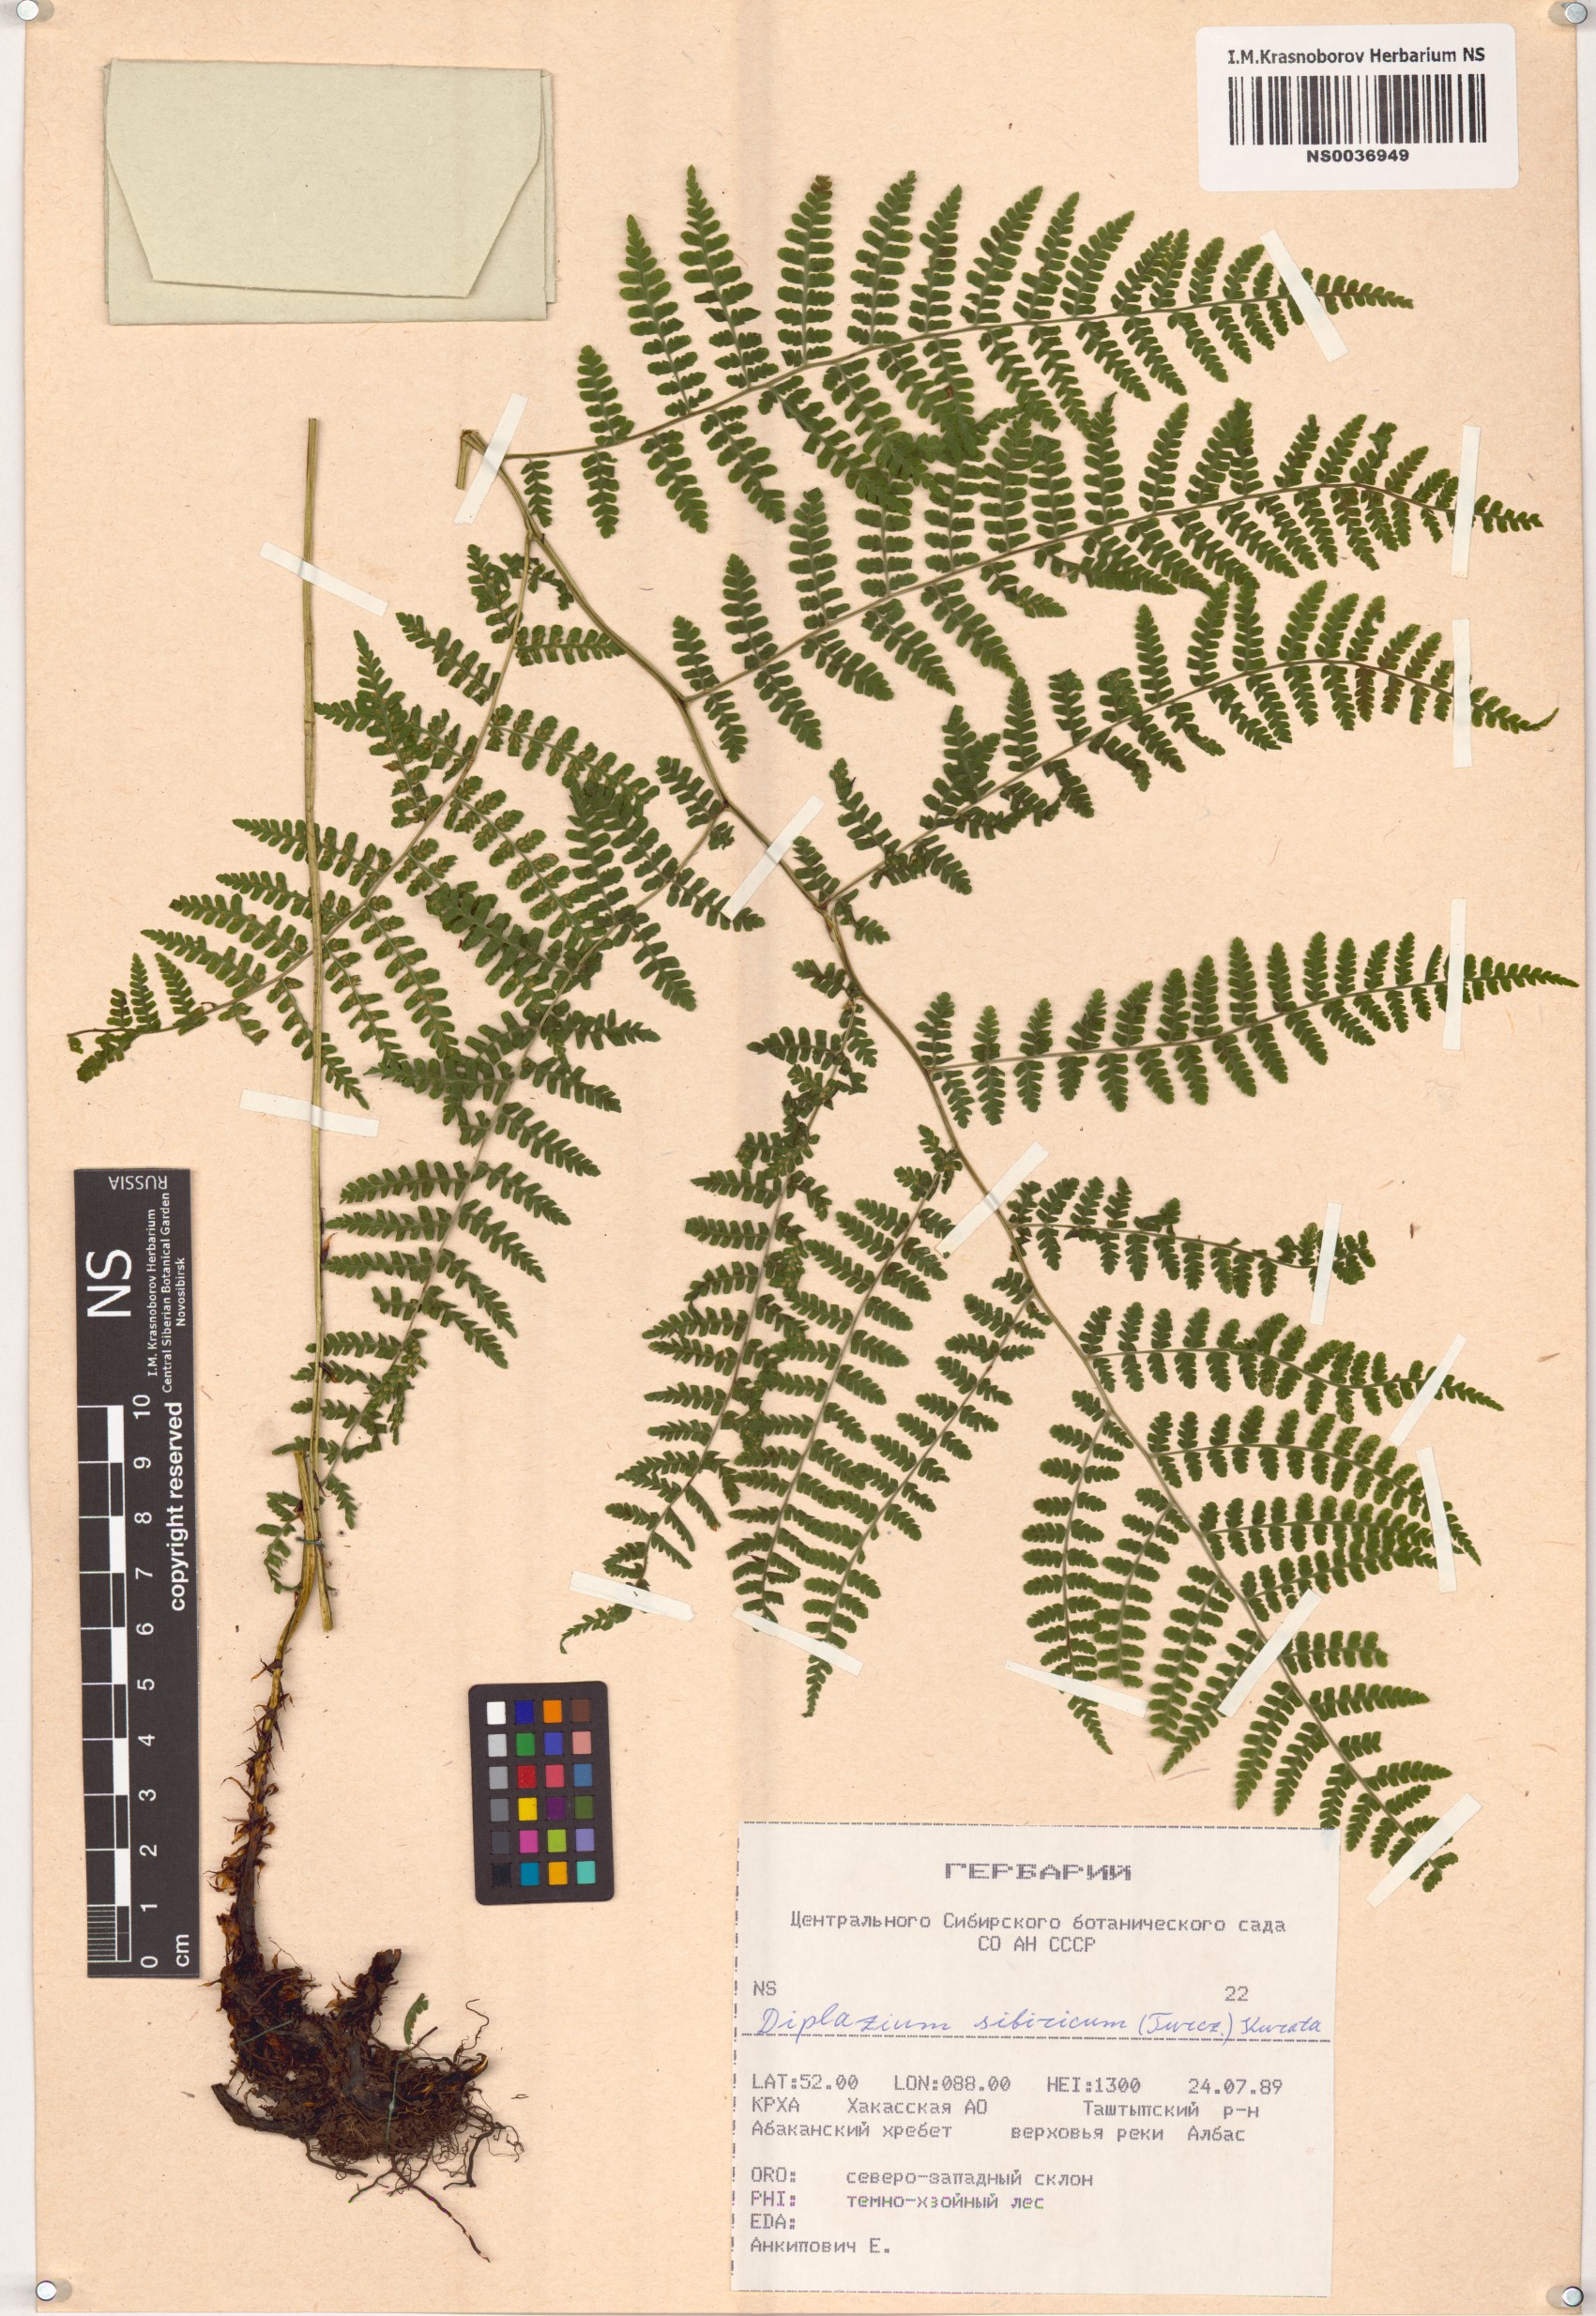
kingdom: Plantae
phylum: Tracheophyta
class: Polypodiopsida
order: Polypodiales
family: Athyriaceae
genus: Diplazium
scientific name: Diplazium sibiricum
